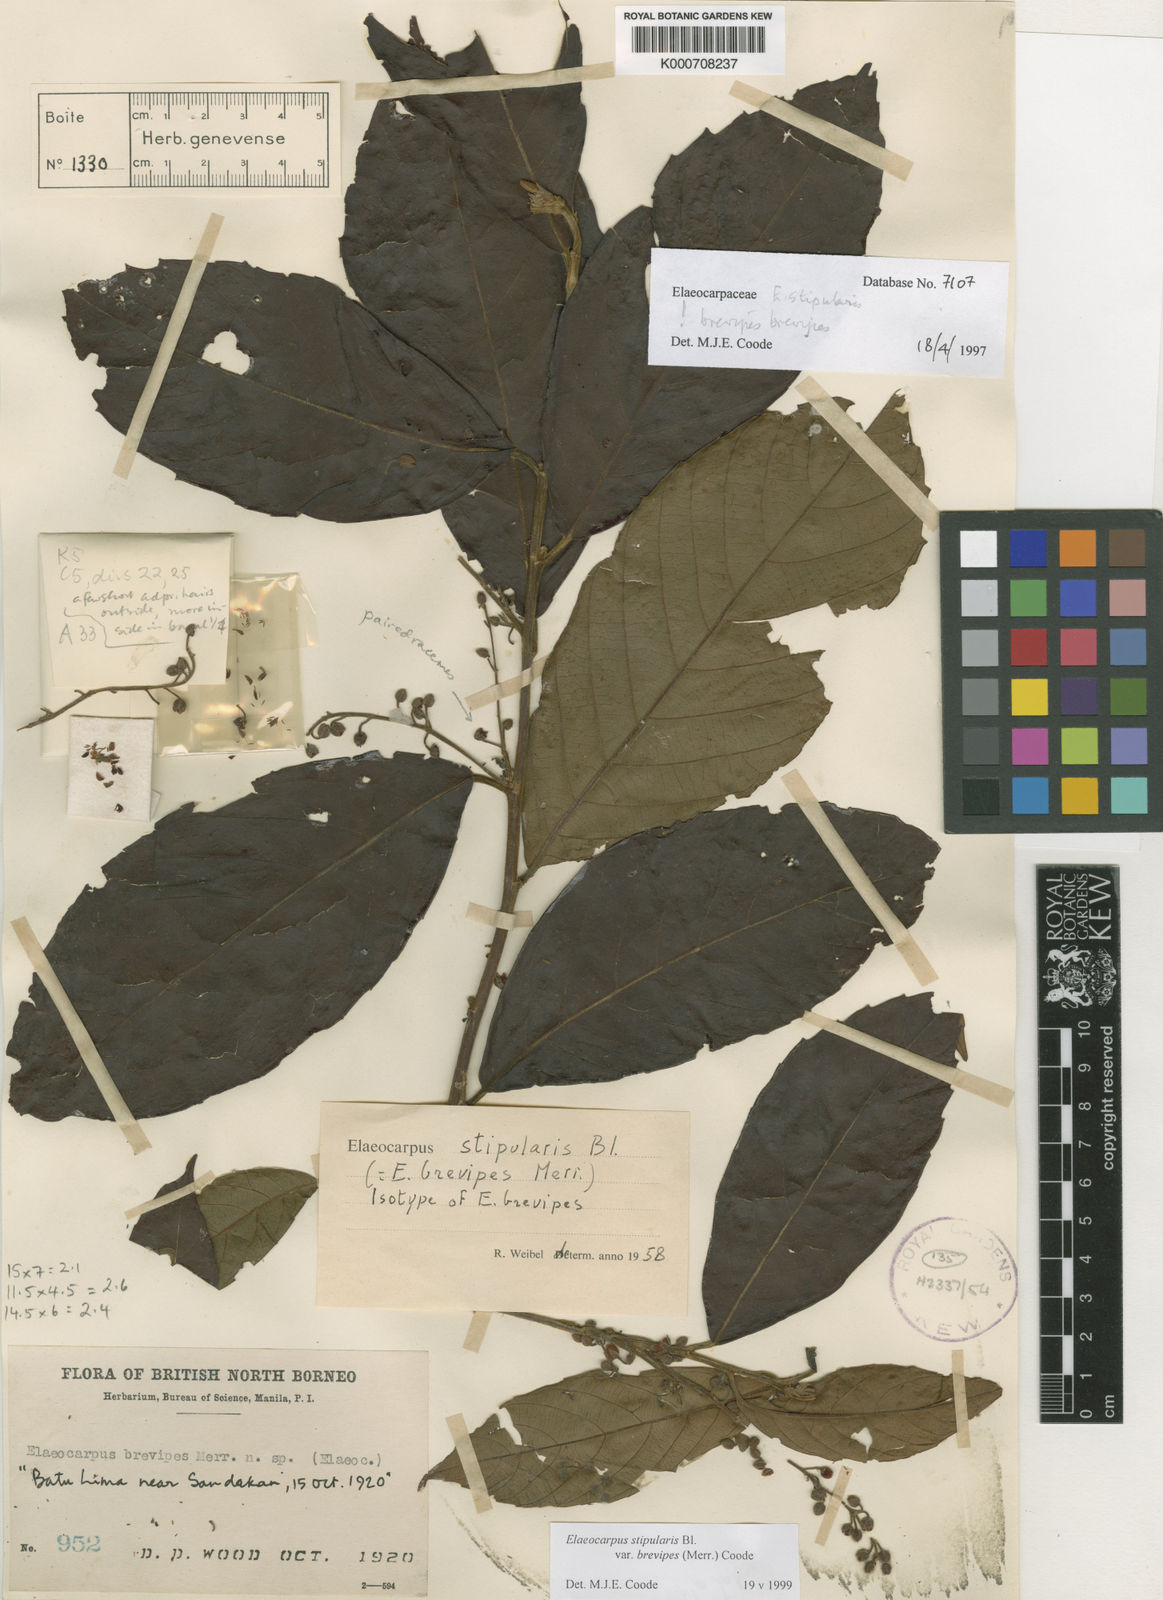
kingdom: Plantae
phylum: Tracheophyta
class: Magnoliopsida
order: Oxalidales
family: Elaeocarpaceae
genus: Elaeocarpus
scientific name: Elaeocarpus stipularis
